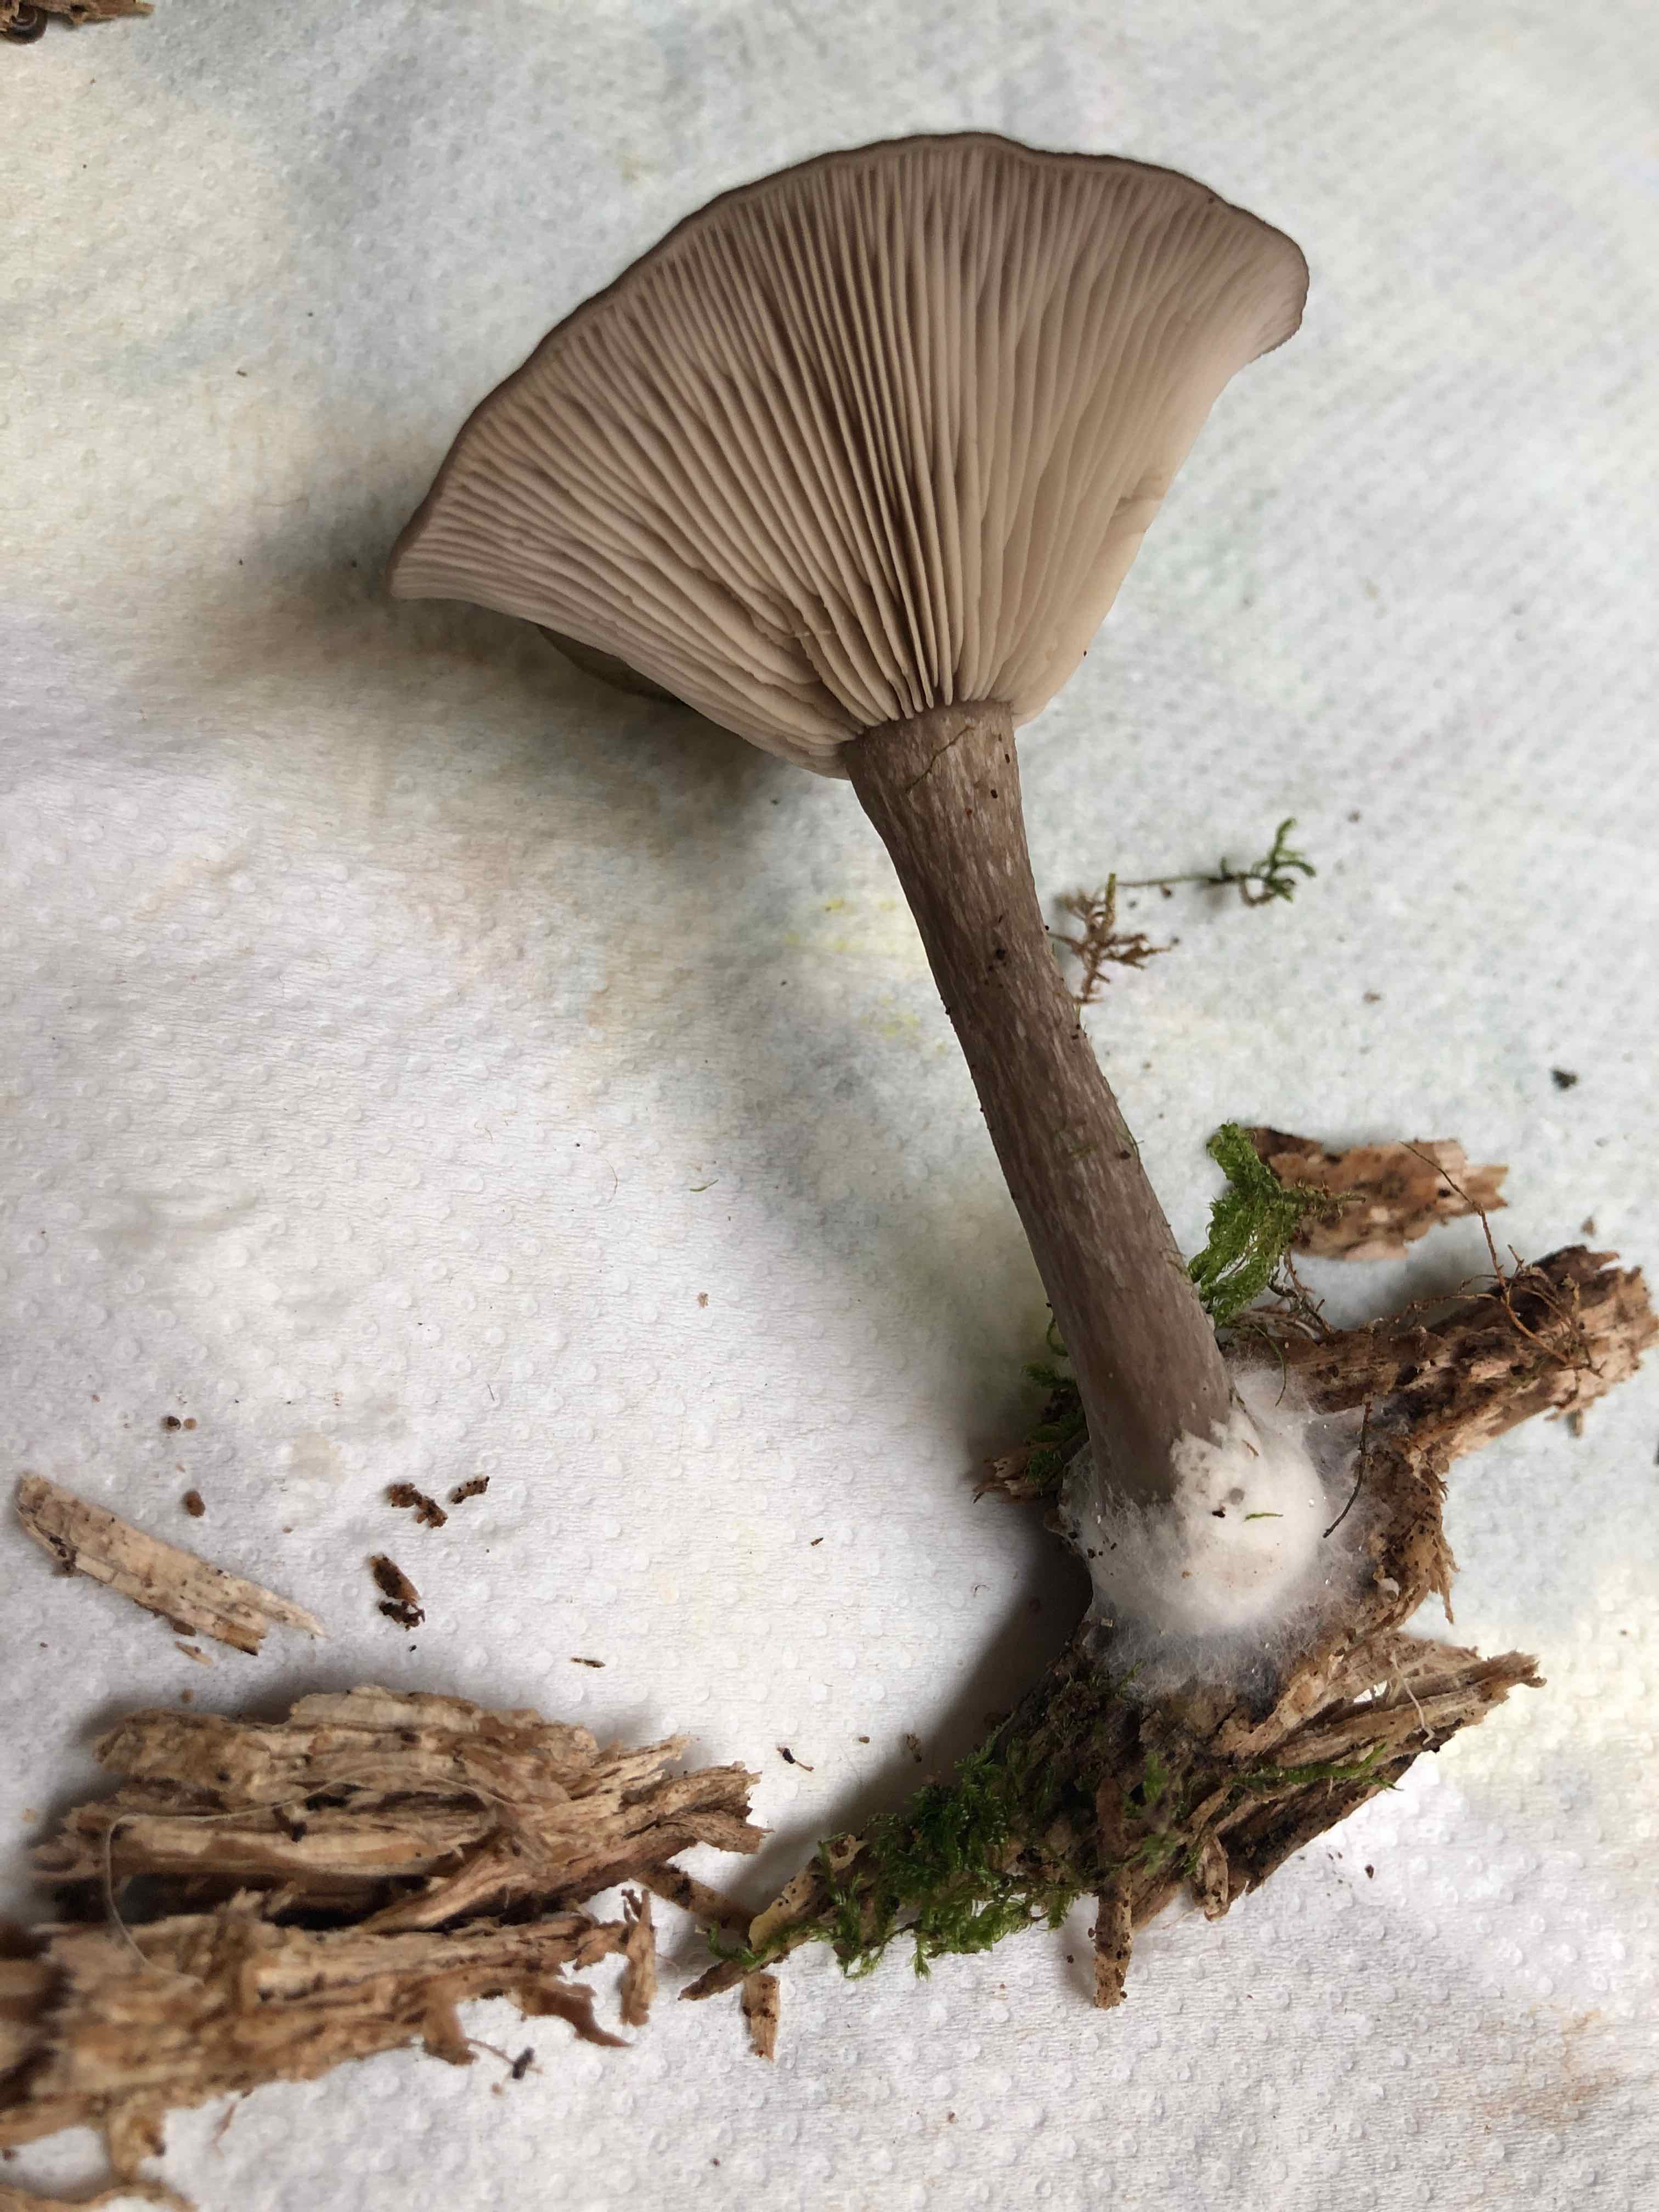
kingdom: Fungi
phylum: Basidiomycota
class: Agaricomycetes
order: Agaricales
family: Pseudoclitocybaceae
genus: Pseudoclitocybe
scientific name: Pseudoclitocybe cyathiformis
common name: almindelig bægertragthat
